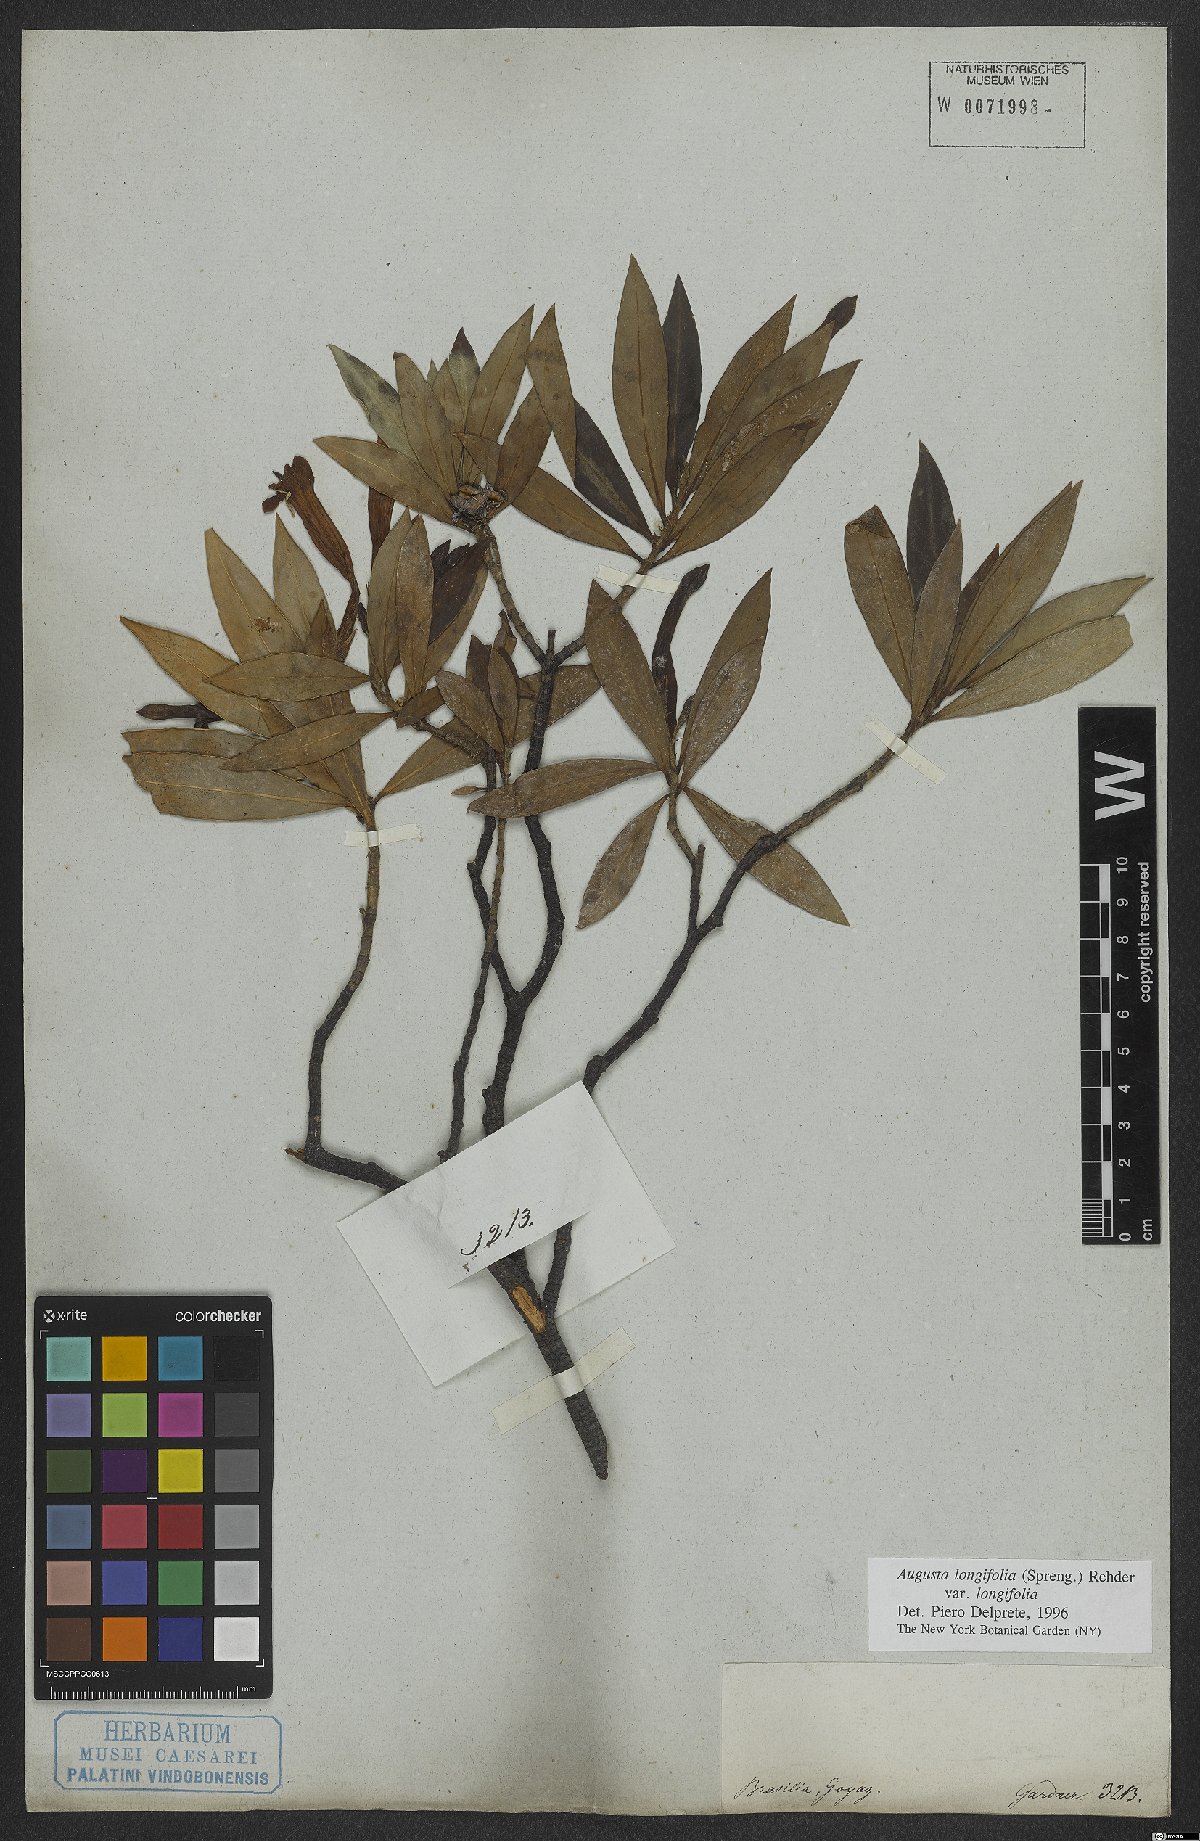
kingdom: Plantae
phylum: Tracheophyta
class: Magnoliopsida
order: Gentianales
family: Rubiaceae
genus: Augusta
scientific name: Augusta longifolia
